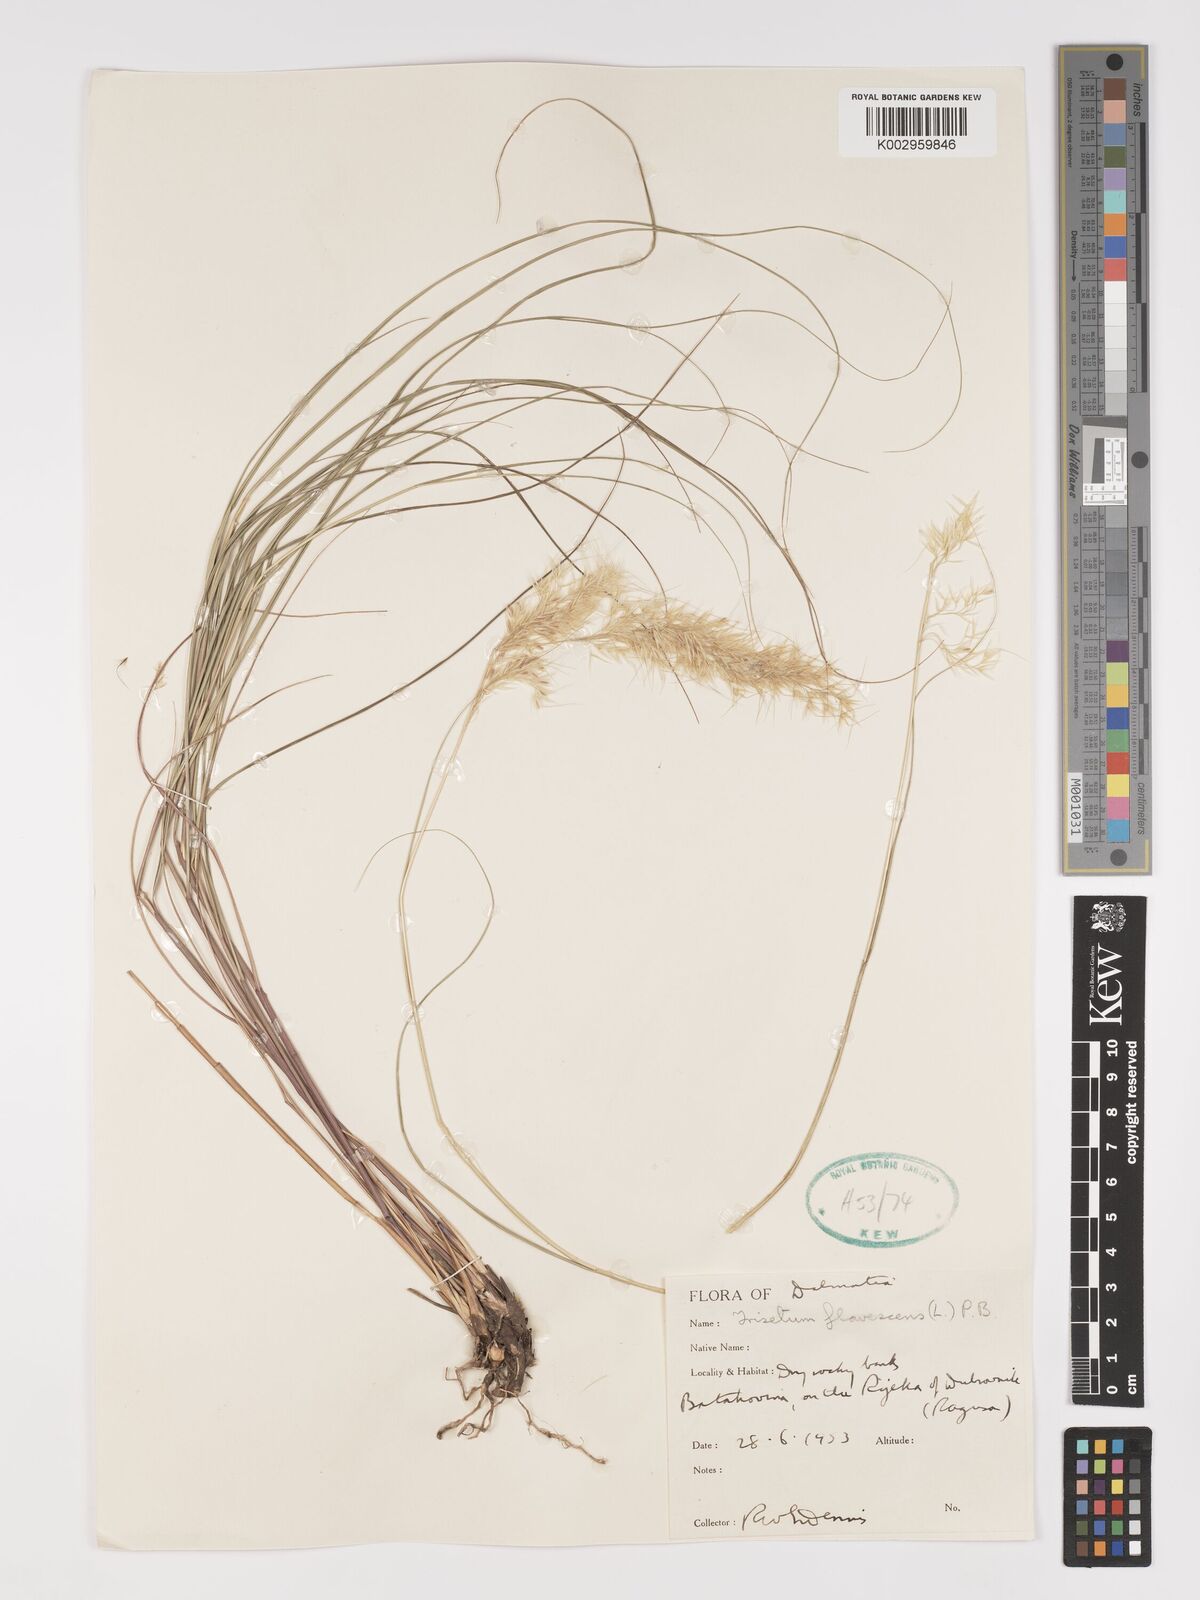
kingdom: Plantae
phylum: Tracheophyta
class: Liliopsida
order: Poales
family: Poaceae
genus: Achnatherum
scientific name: Achnatherum calamagrostis
